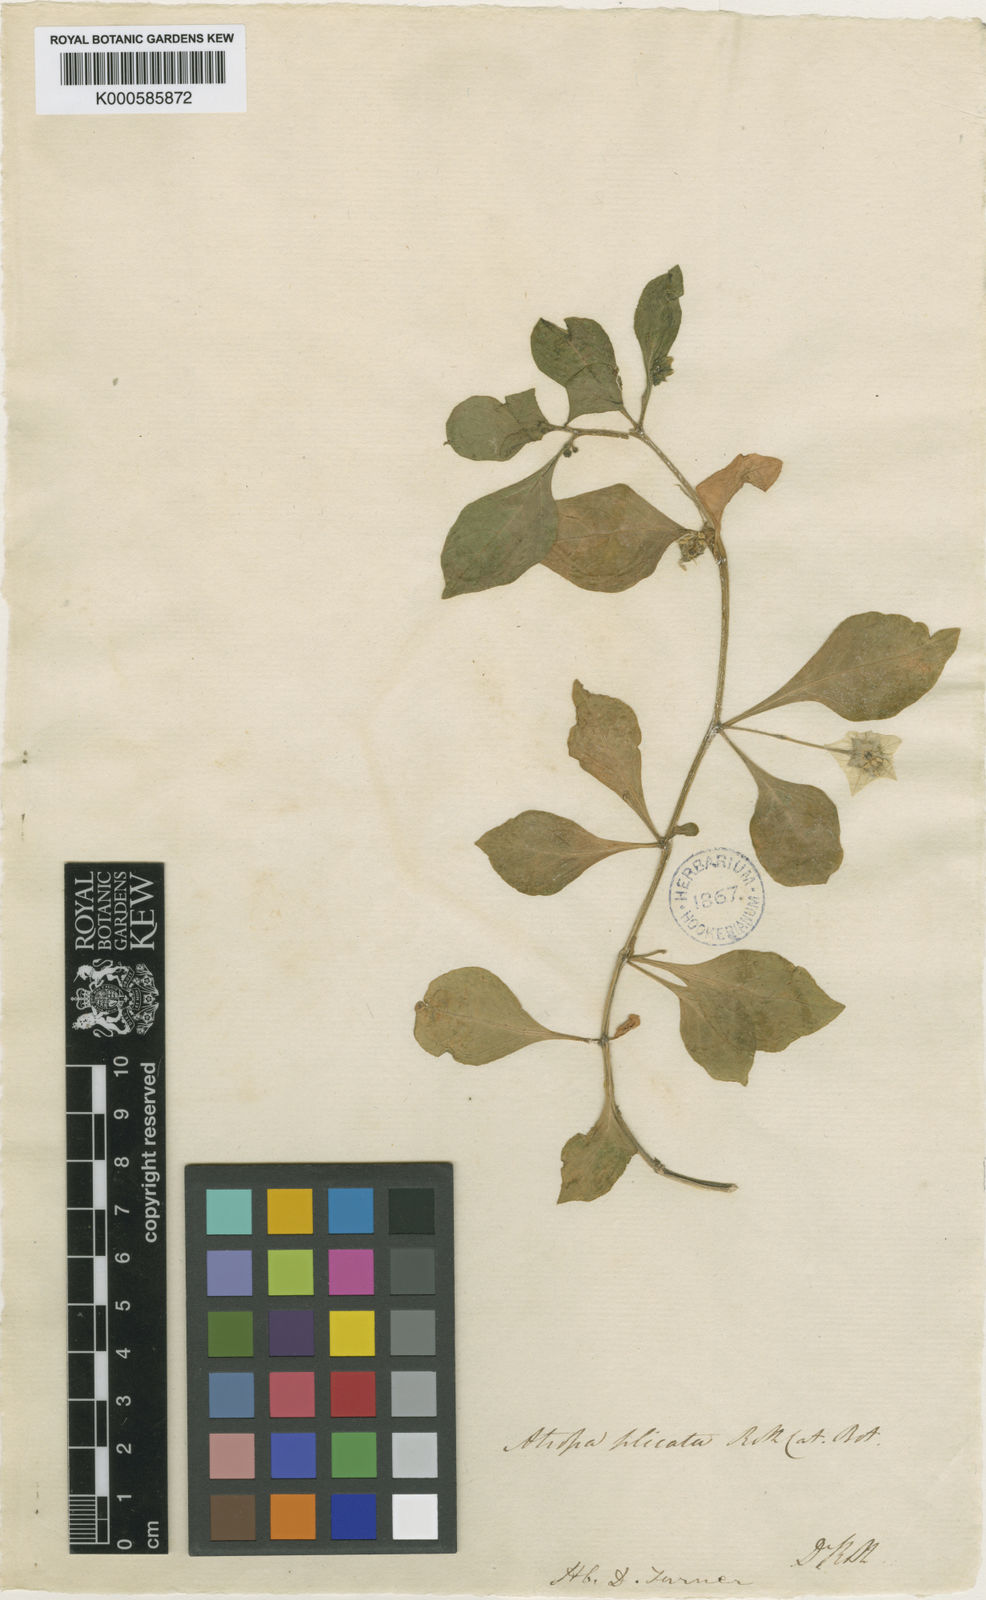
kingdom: Plantae
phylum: Tracheophyta
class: Magnoliopsida
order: Solanales
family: Solanaceae
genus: Jaltomata
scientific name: Jaltomata procumbens
